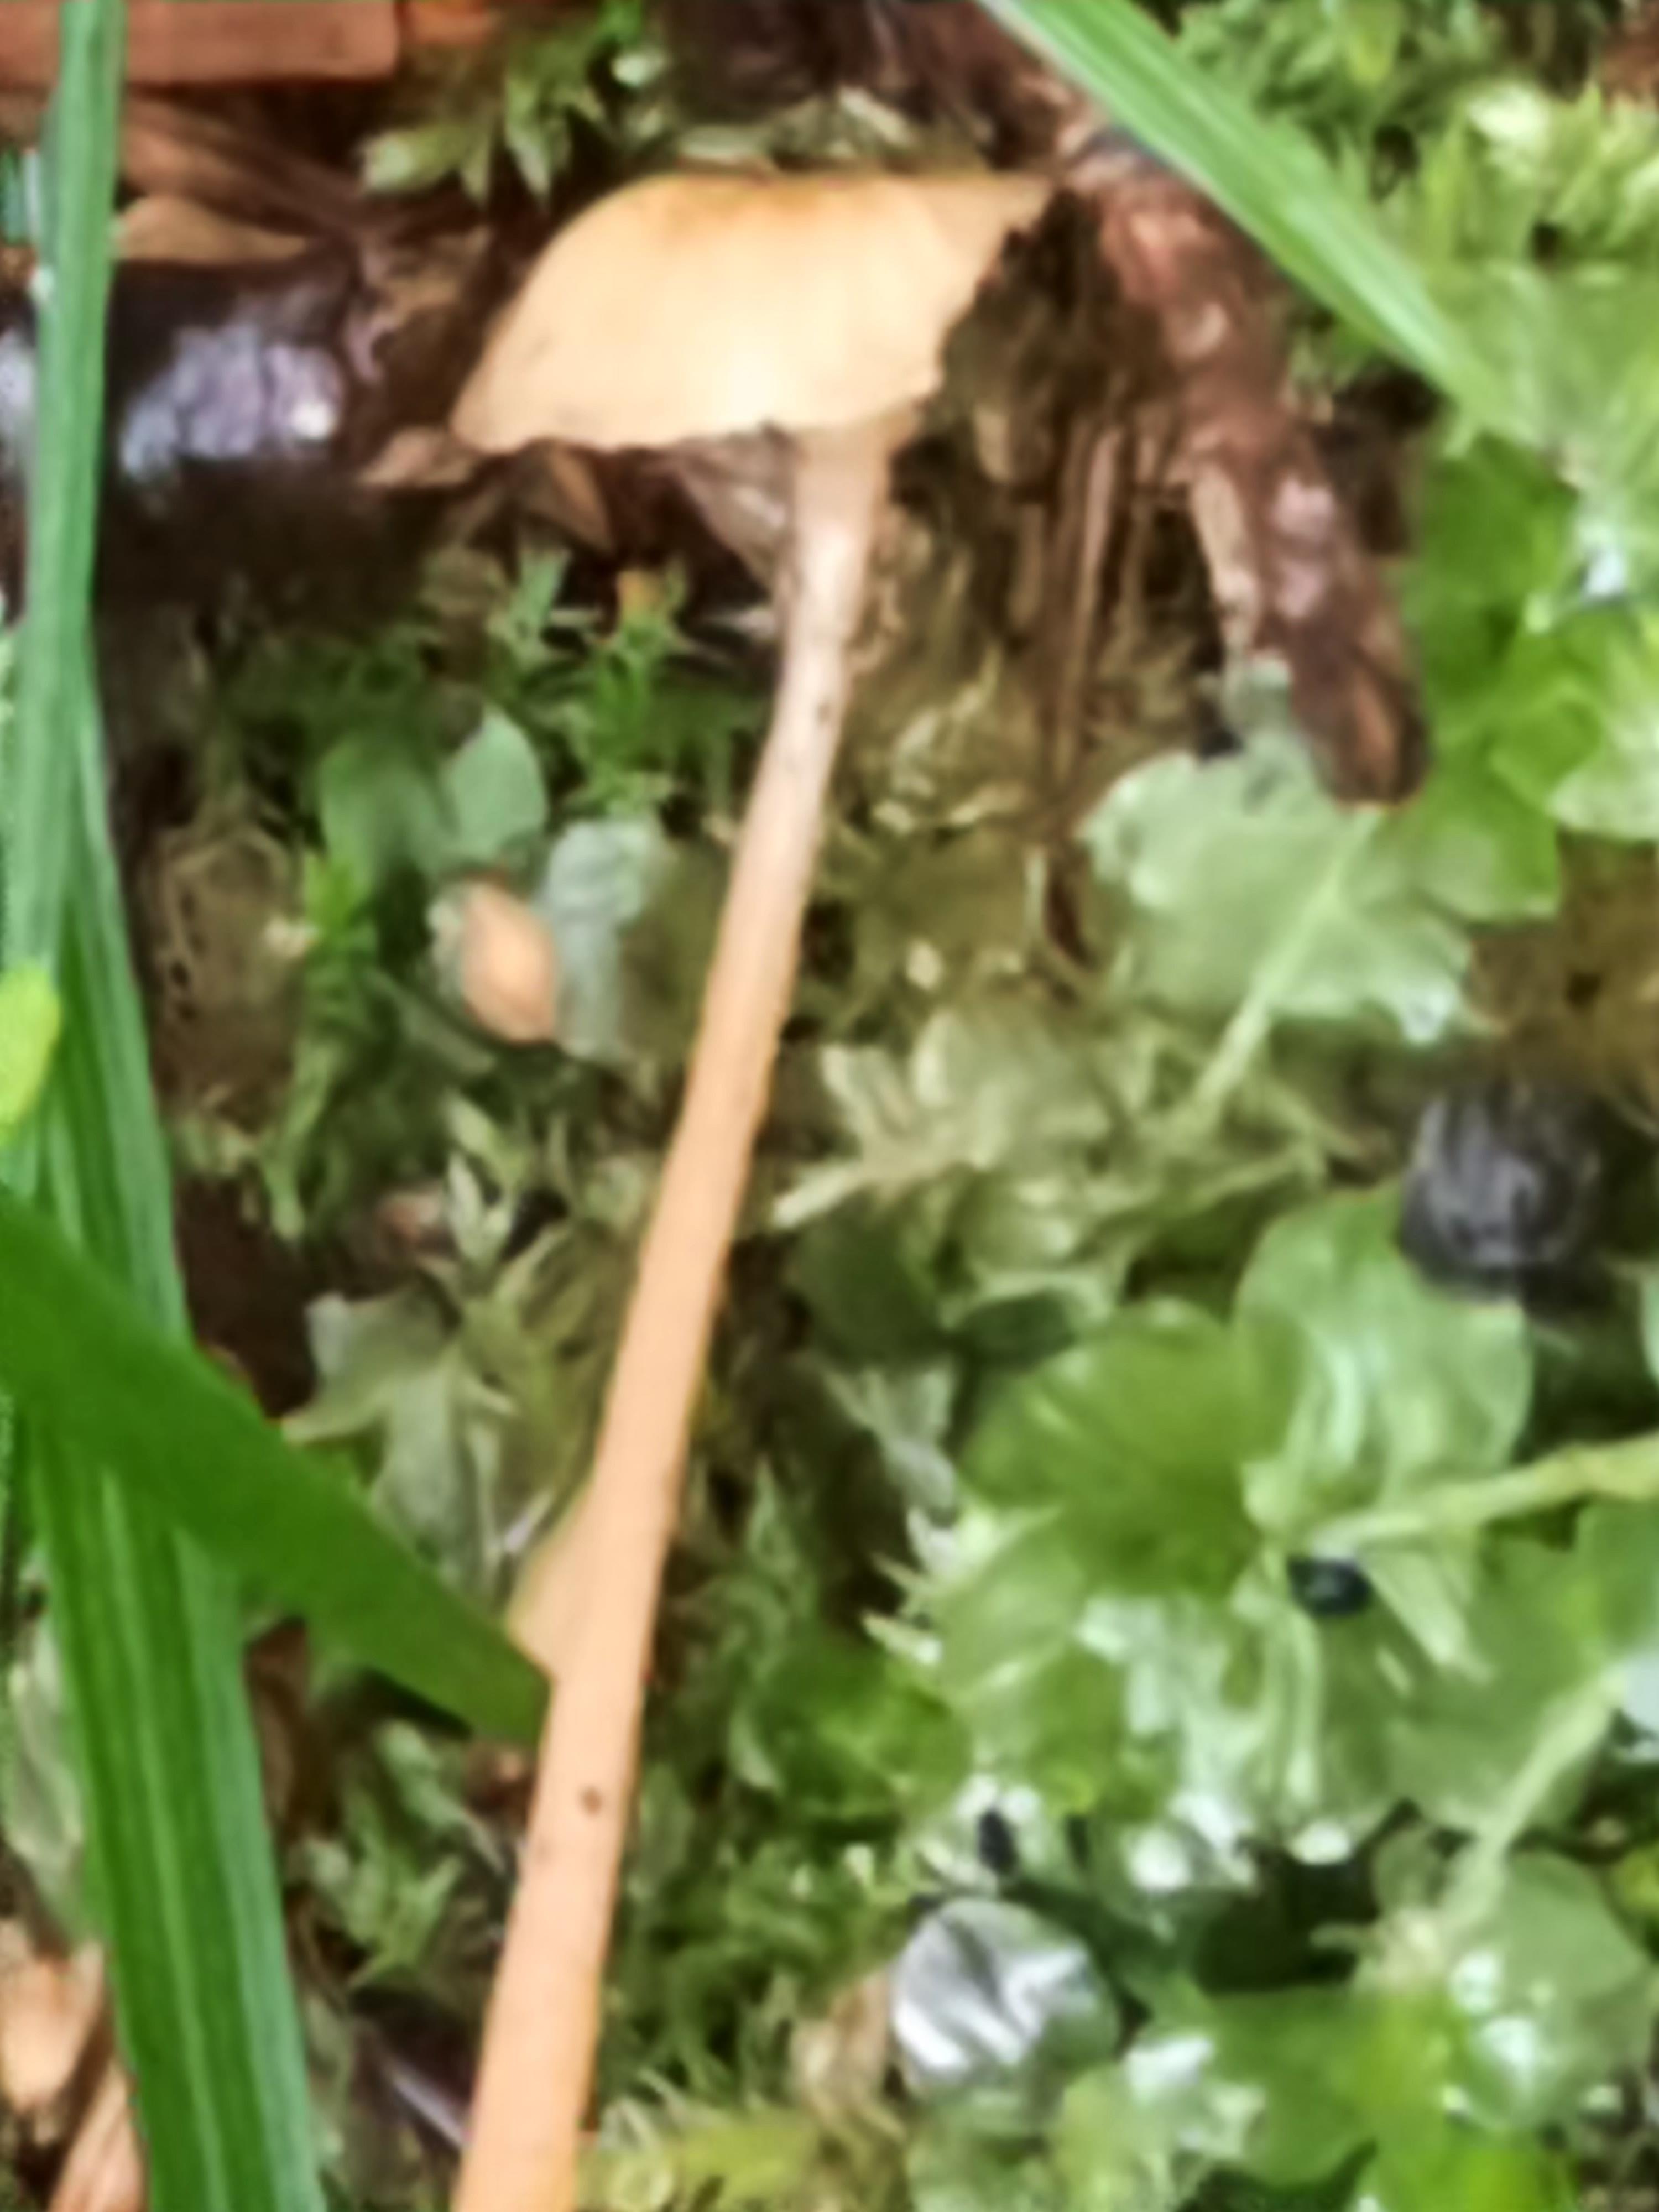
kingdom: Fungi
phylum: Basidiomycota
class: Agaricomycetes
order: Hymenochaetales
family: Rickenellaceae
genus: Rickenella
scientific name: Rickenella fibula
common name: orange mosnavlehat
